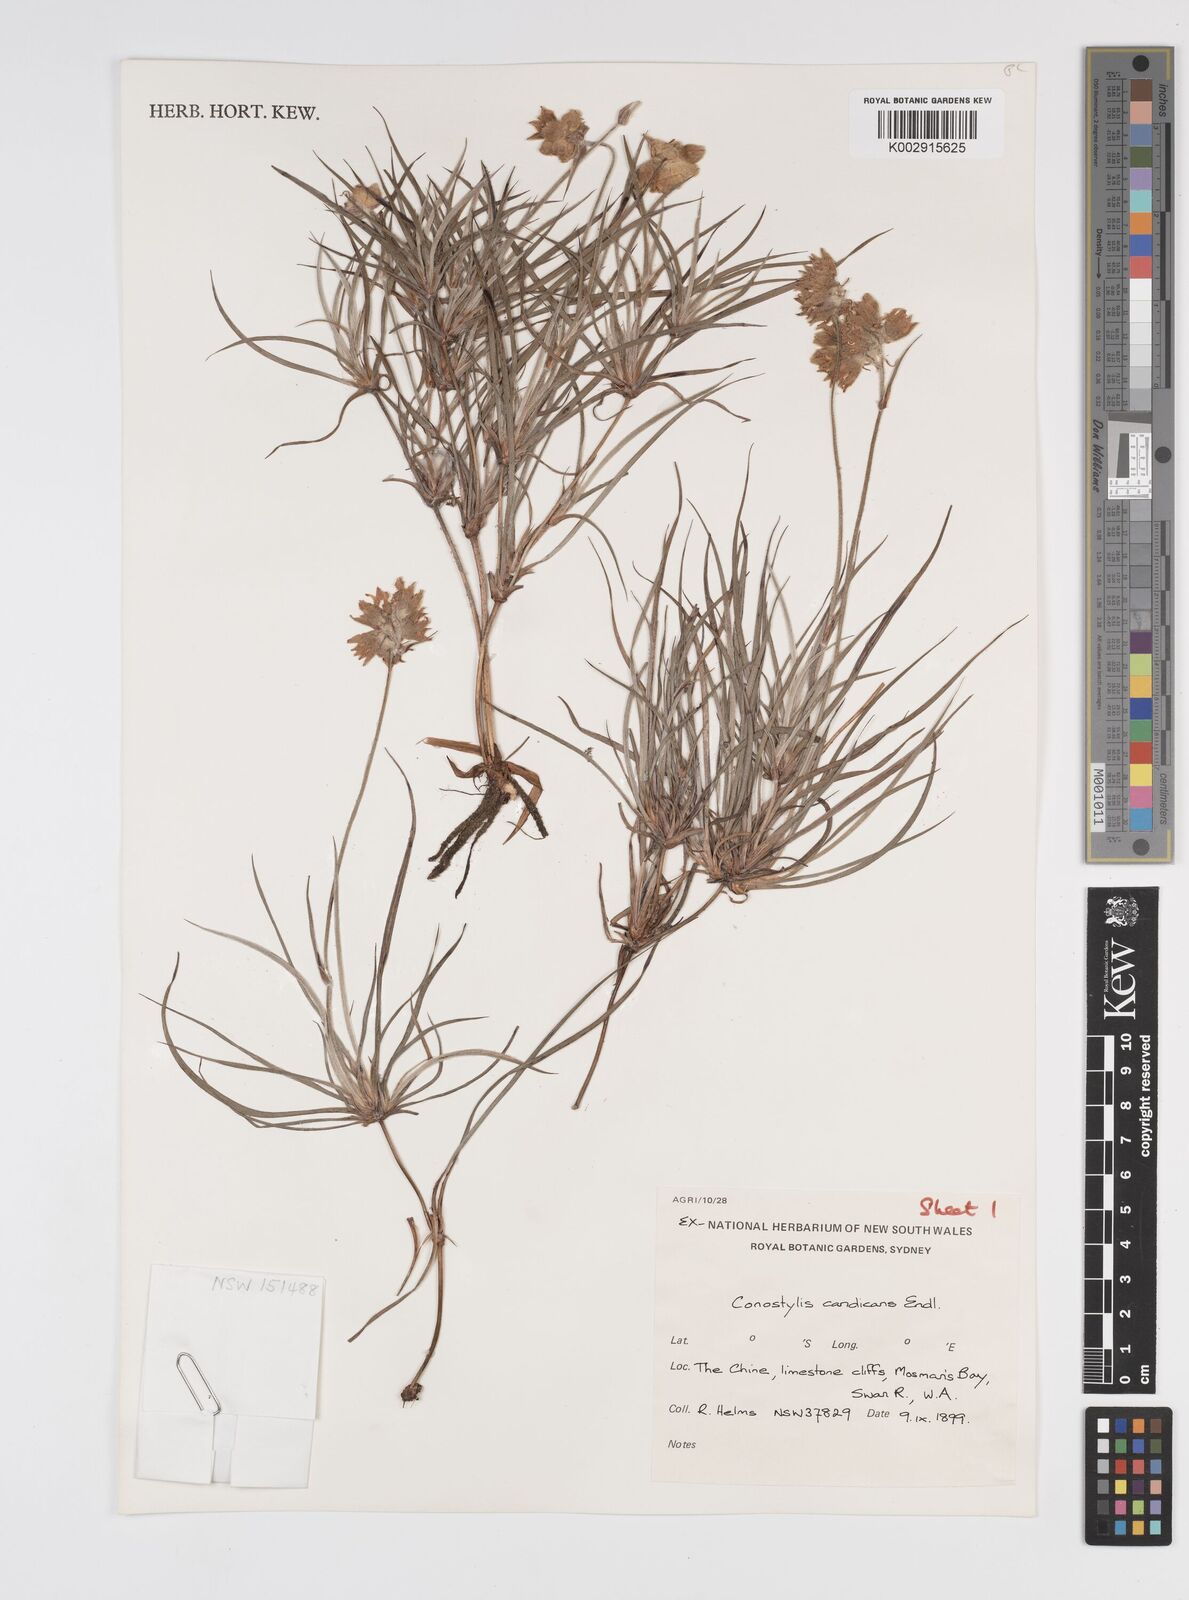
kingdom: Plantae
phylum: Tracheophyta
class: Liliopsida
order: Commelinales
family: Haemodoraceae
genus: Conostylis
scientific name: Conostylis candicans
